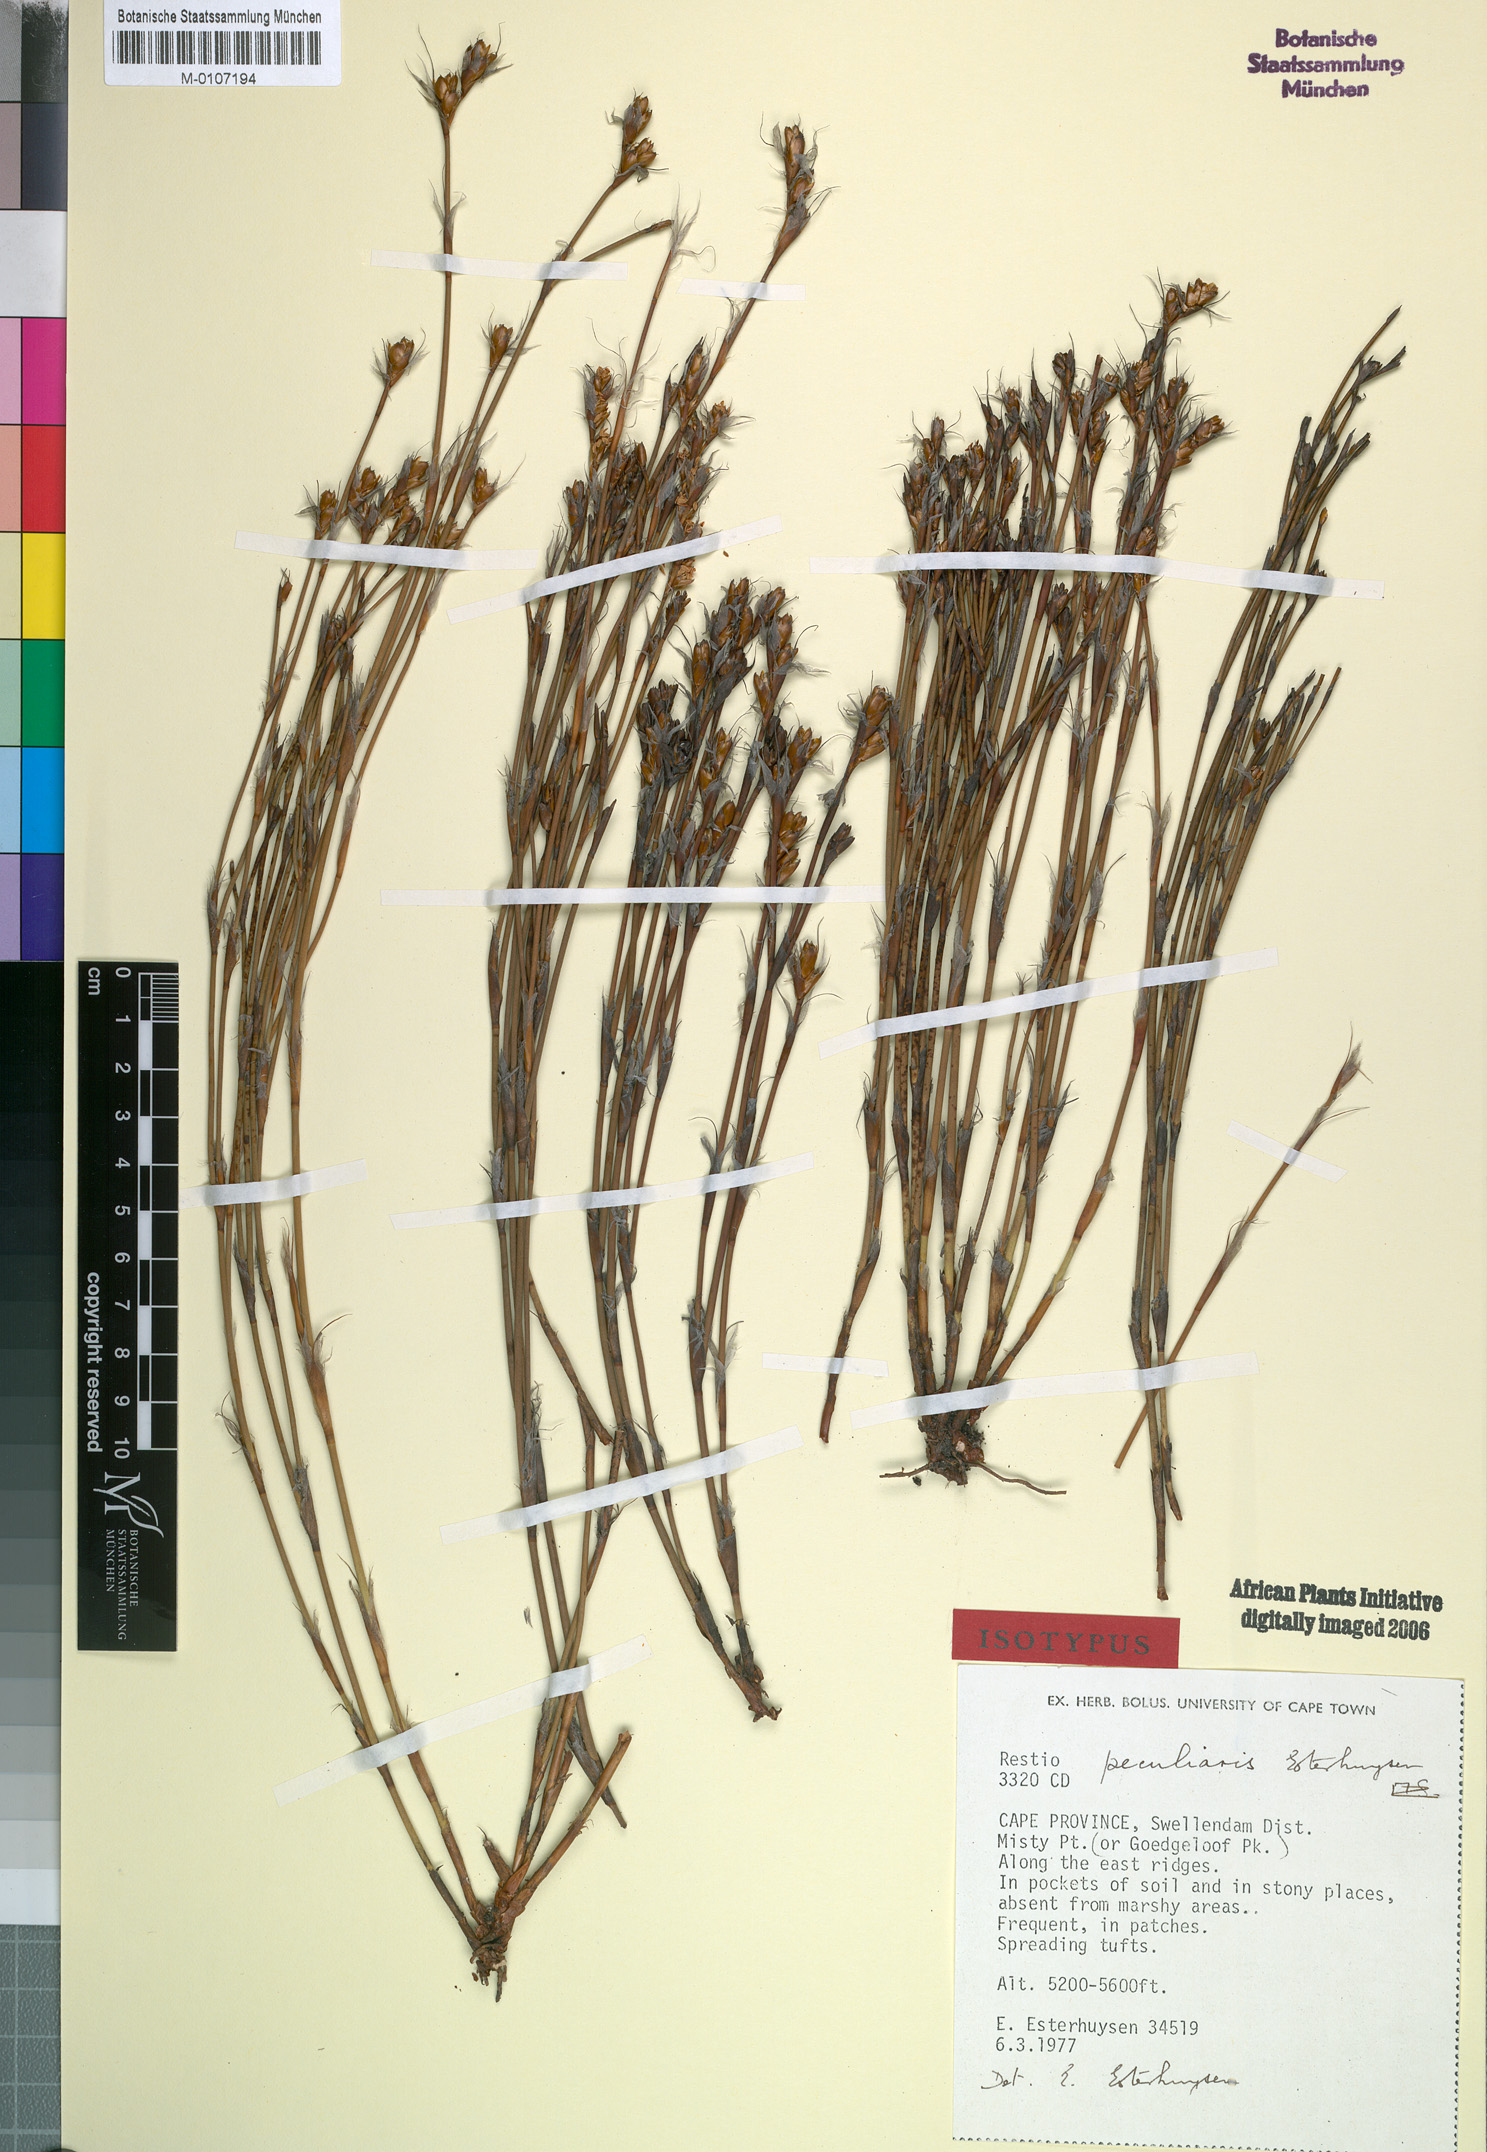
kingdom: Plantae
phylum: Tracheophyta
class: Liliopsida
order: Poales
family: Restionaceae
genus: Restio
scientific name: Restio peculiaris
